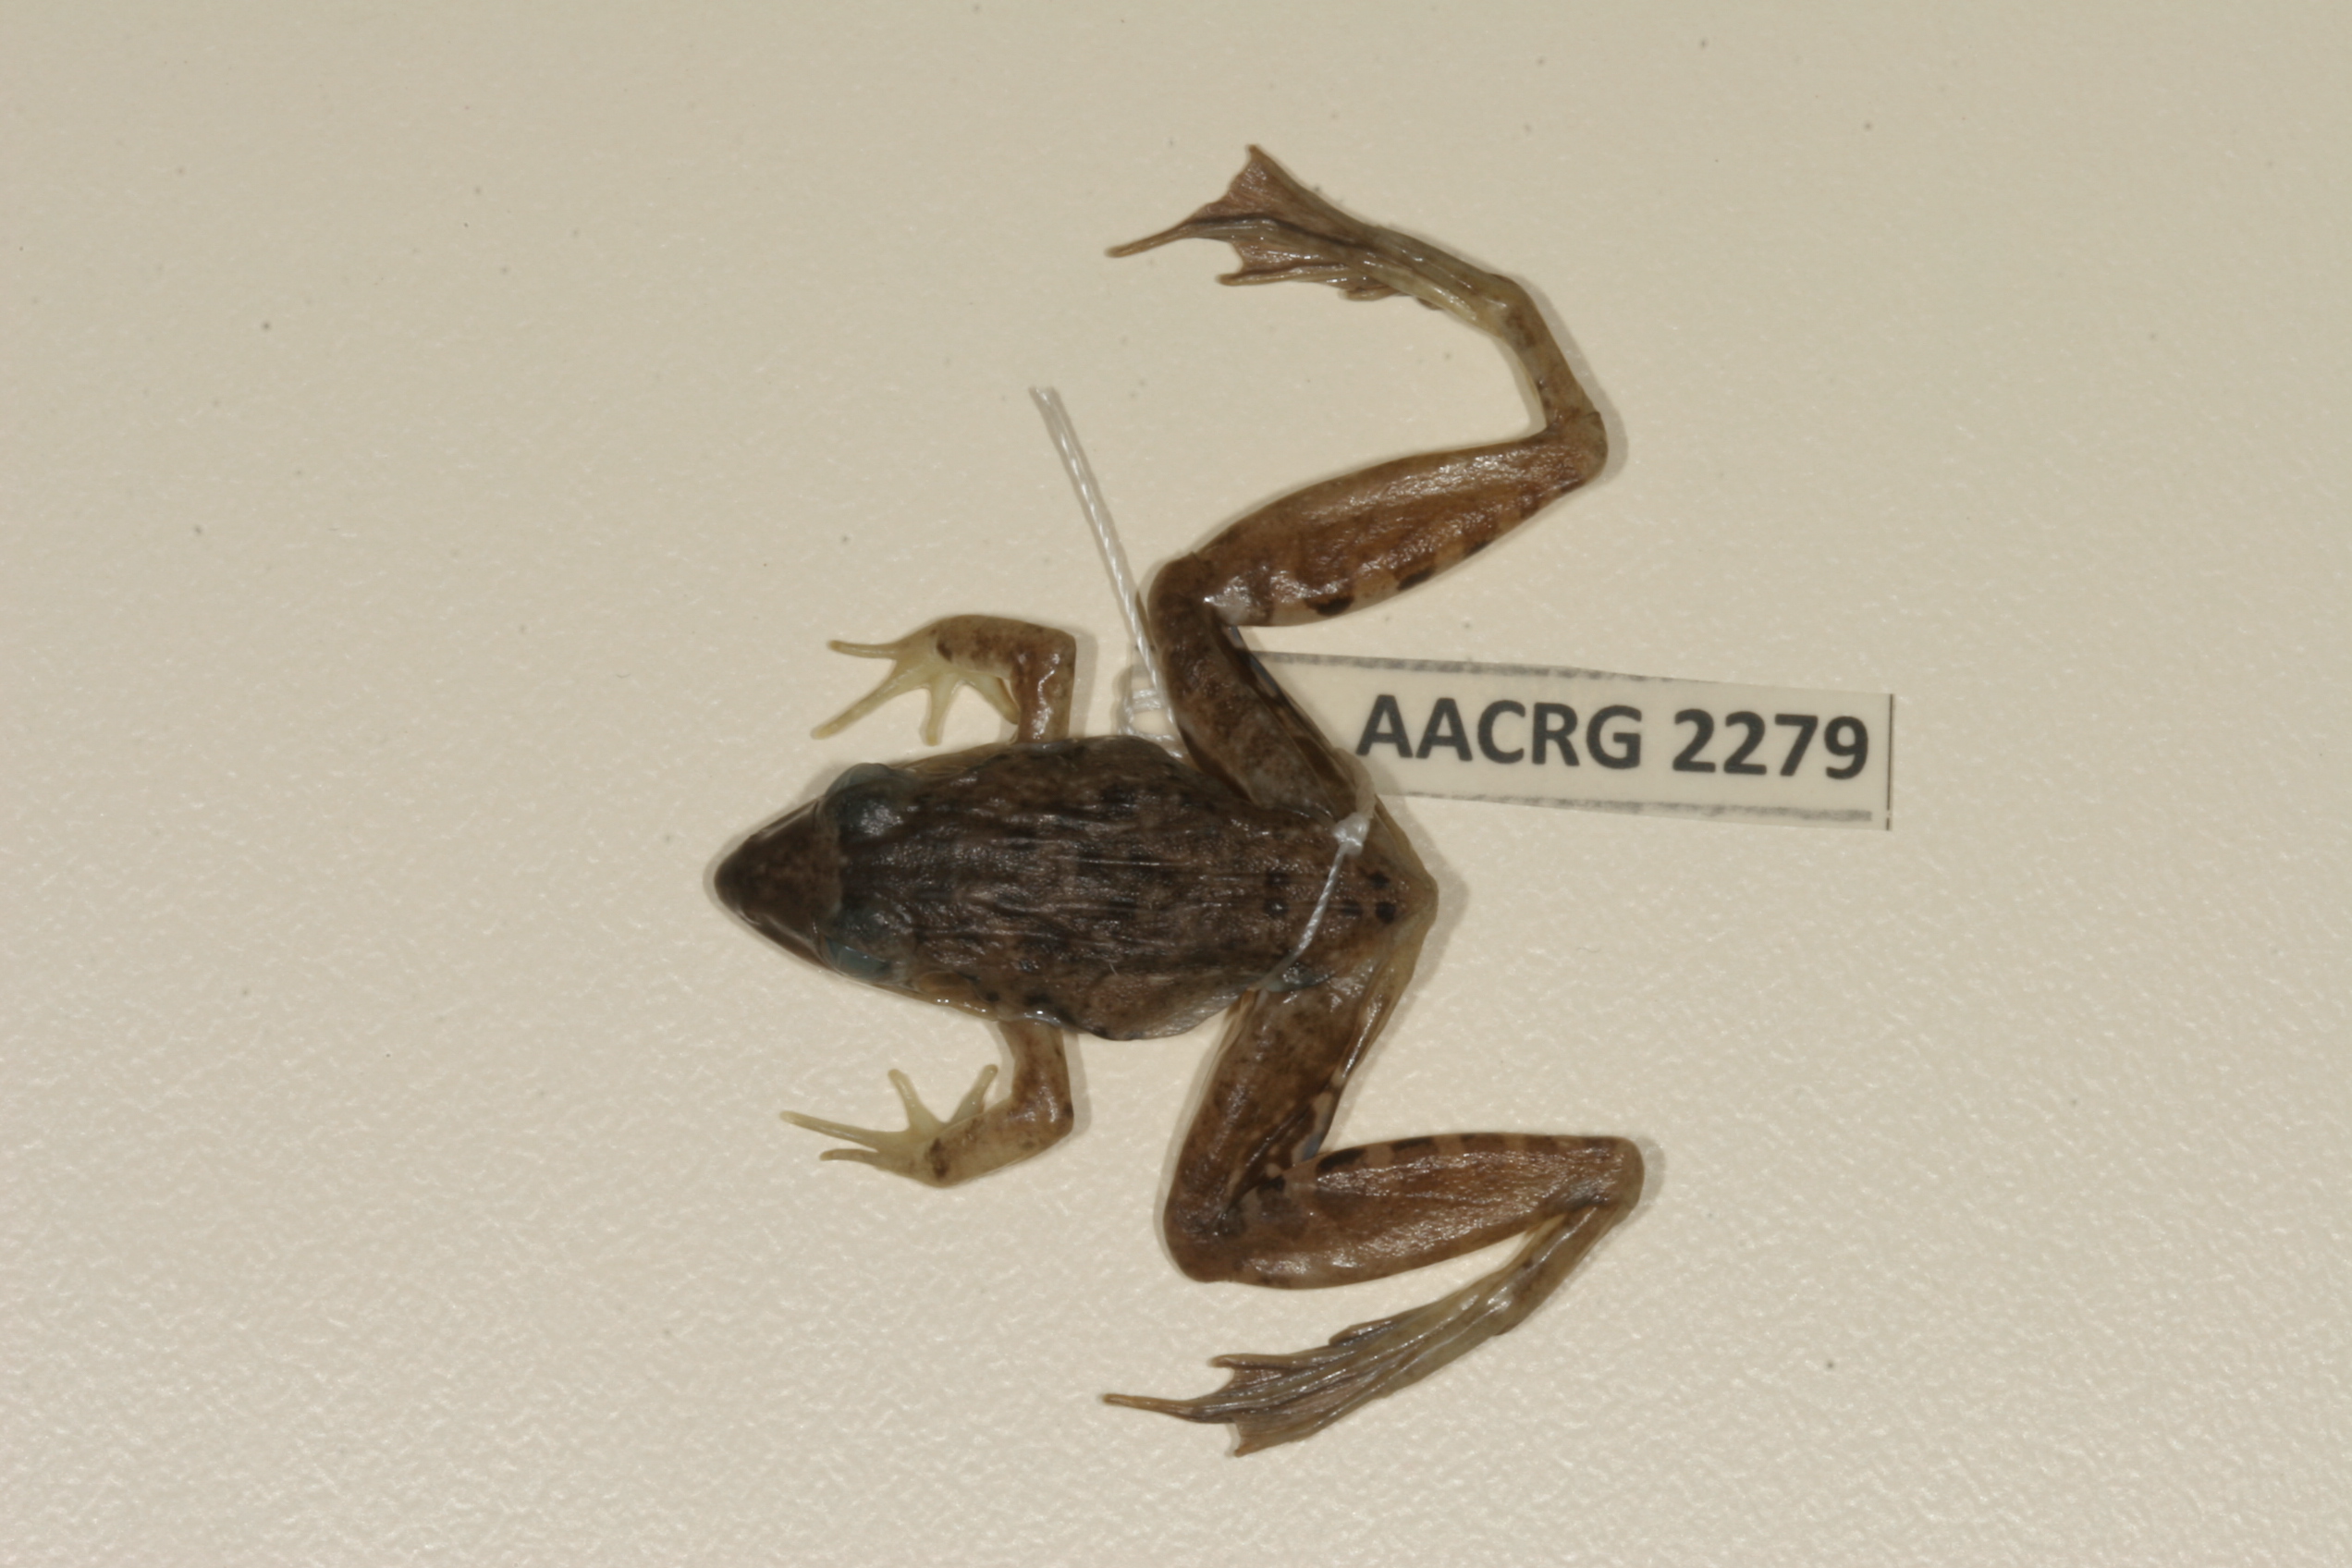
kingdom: Animalia
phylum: Chordata
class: Amphibia
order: Anura
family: Ptychadenidae
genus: Ptychadena
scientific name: Ptychadena anchietae
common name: Anchieta's ridged frog
